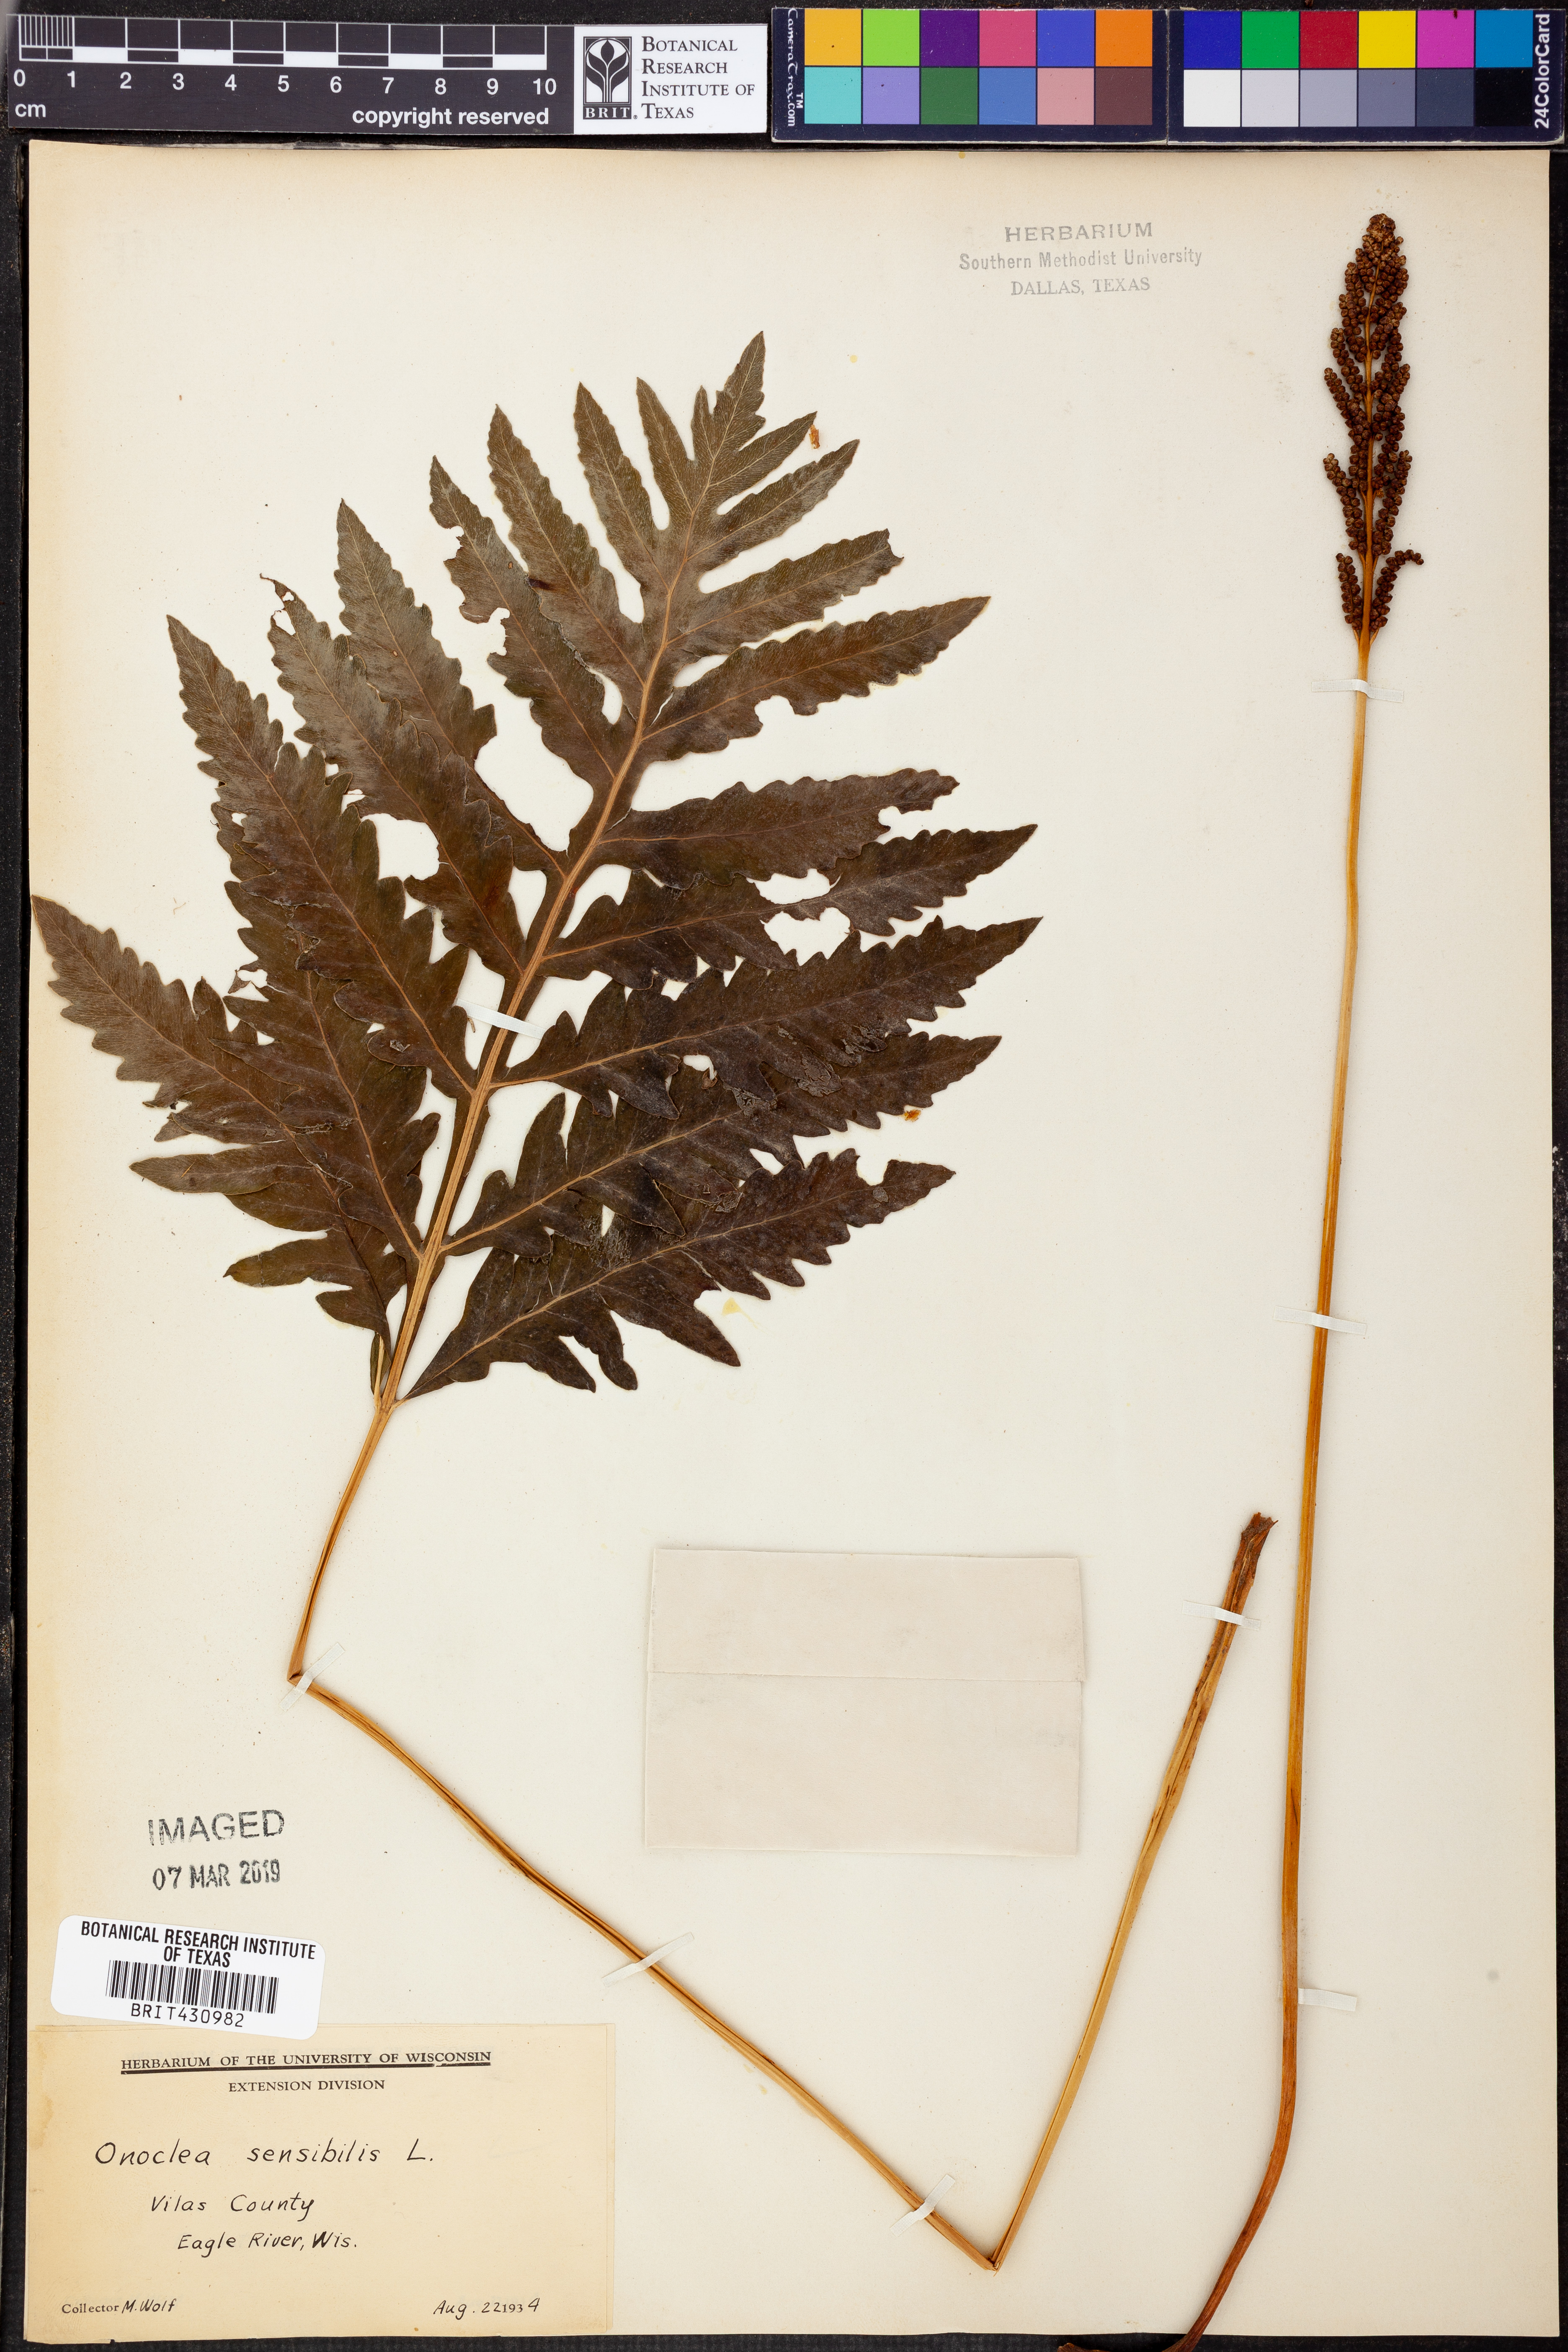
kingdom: Plantae
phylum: Tracheophyta
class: Polypodiopsida
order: Polypodiales
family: Onocleaceae
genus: Onoclea
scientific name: Onoclea sensibilis
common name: Sensitive fern
